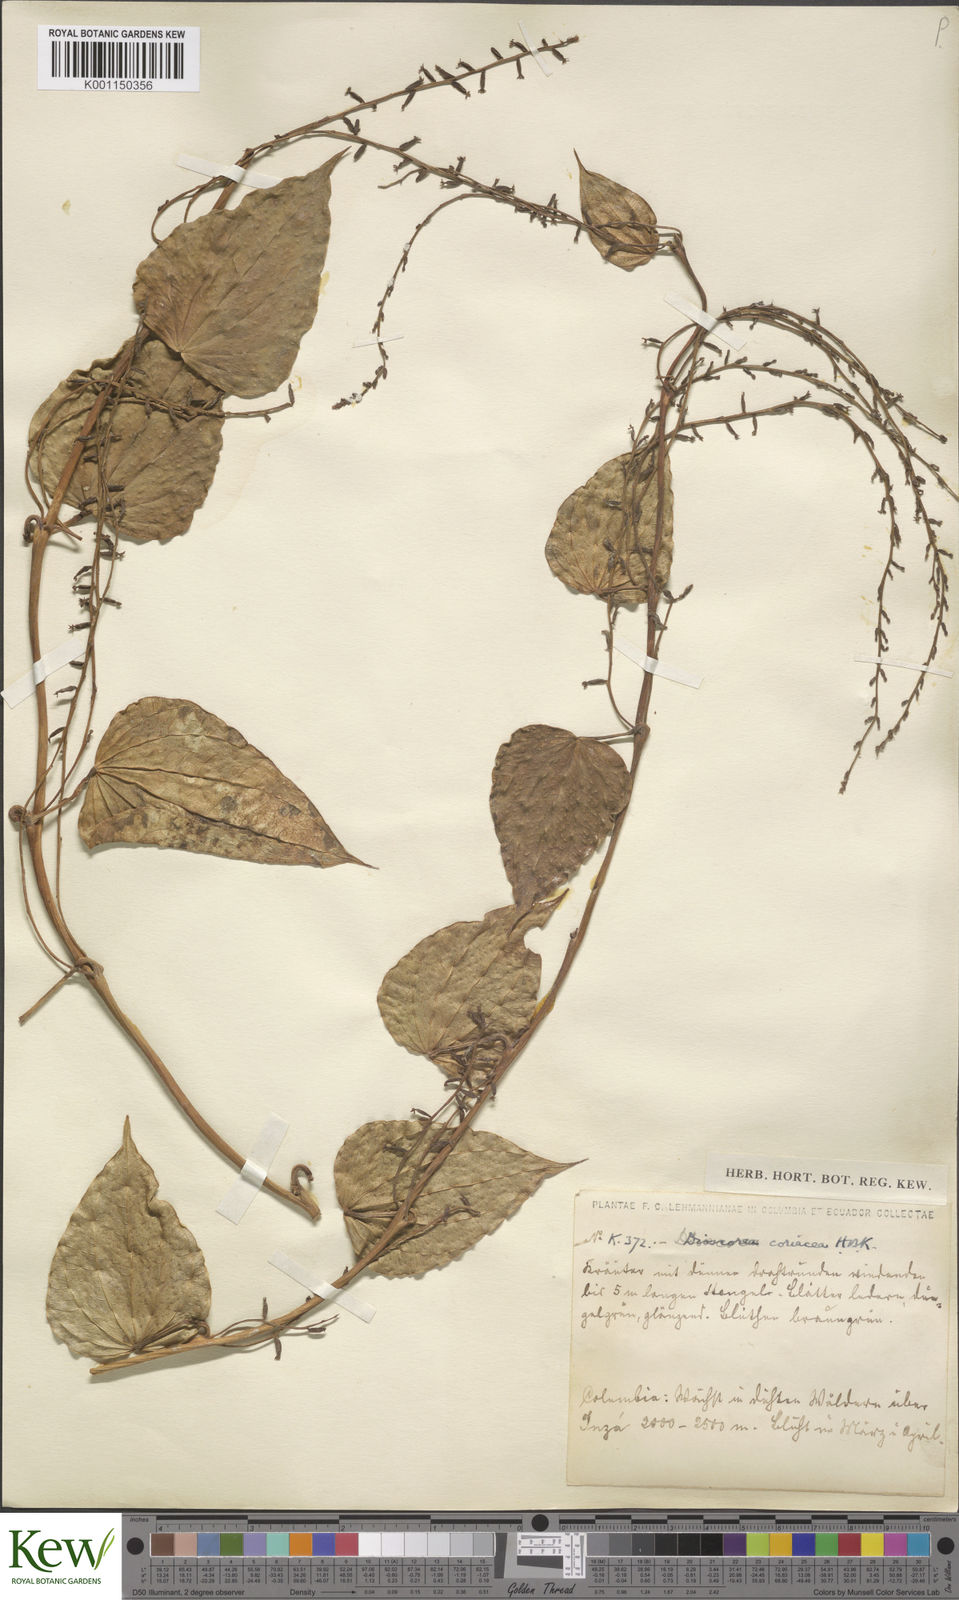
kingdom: Plantae
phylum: Tracheophyta
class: Liliopsida
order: Dioscoreales
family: Dioscoreaceae
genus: Dioscorea
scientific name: Dioscorea coriacea
